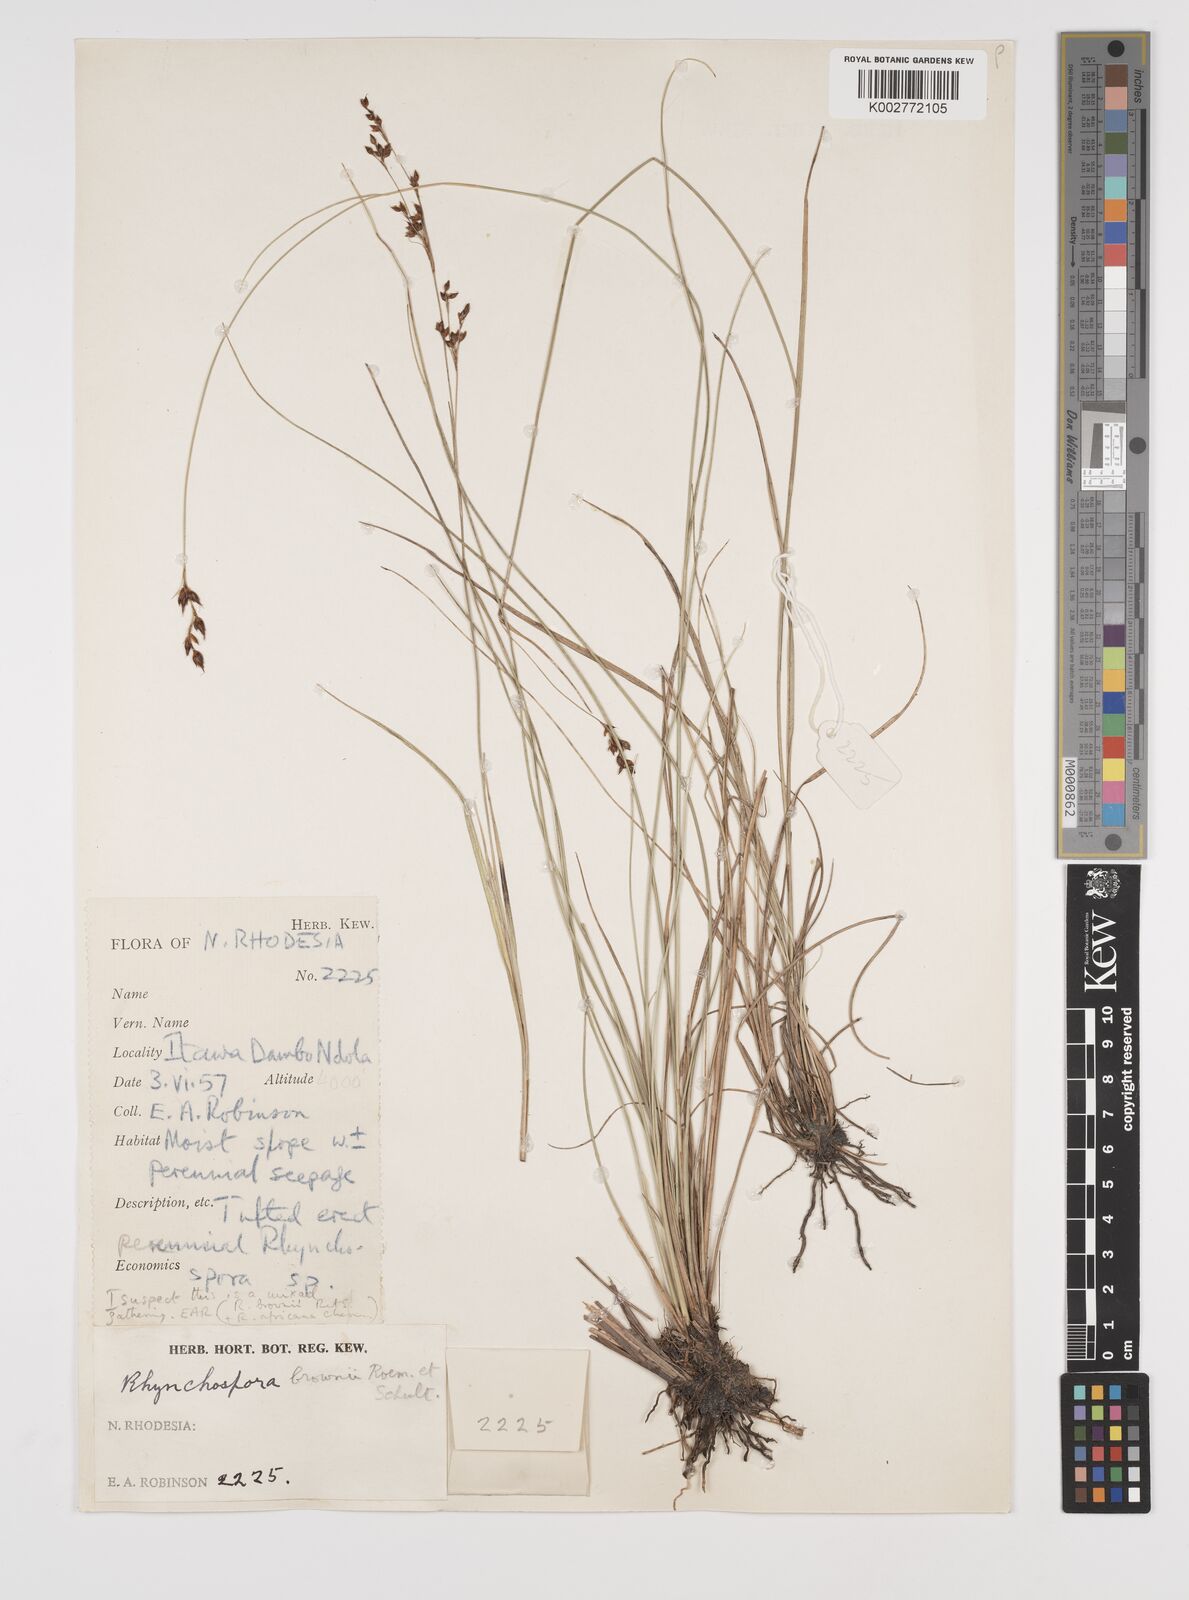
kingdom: Plantae
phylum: Tracheophyta
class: Liliopsida
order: Poales
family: Cyperaceae
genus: Rhynchospora
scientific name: Rhynchospora rugosa
